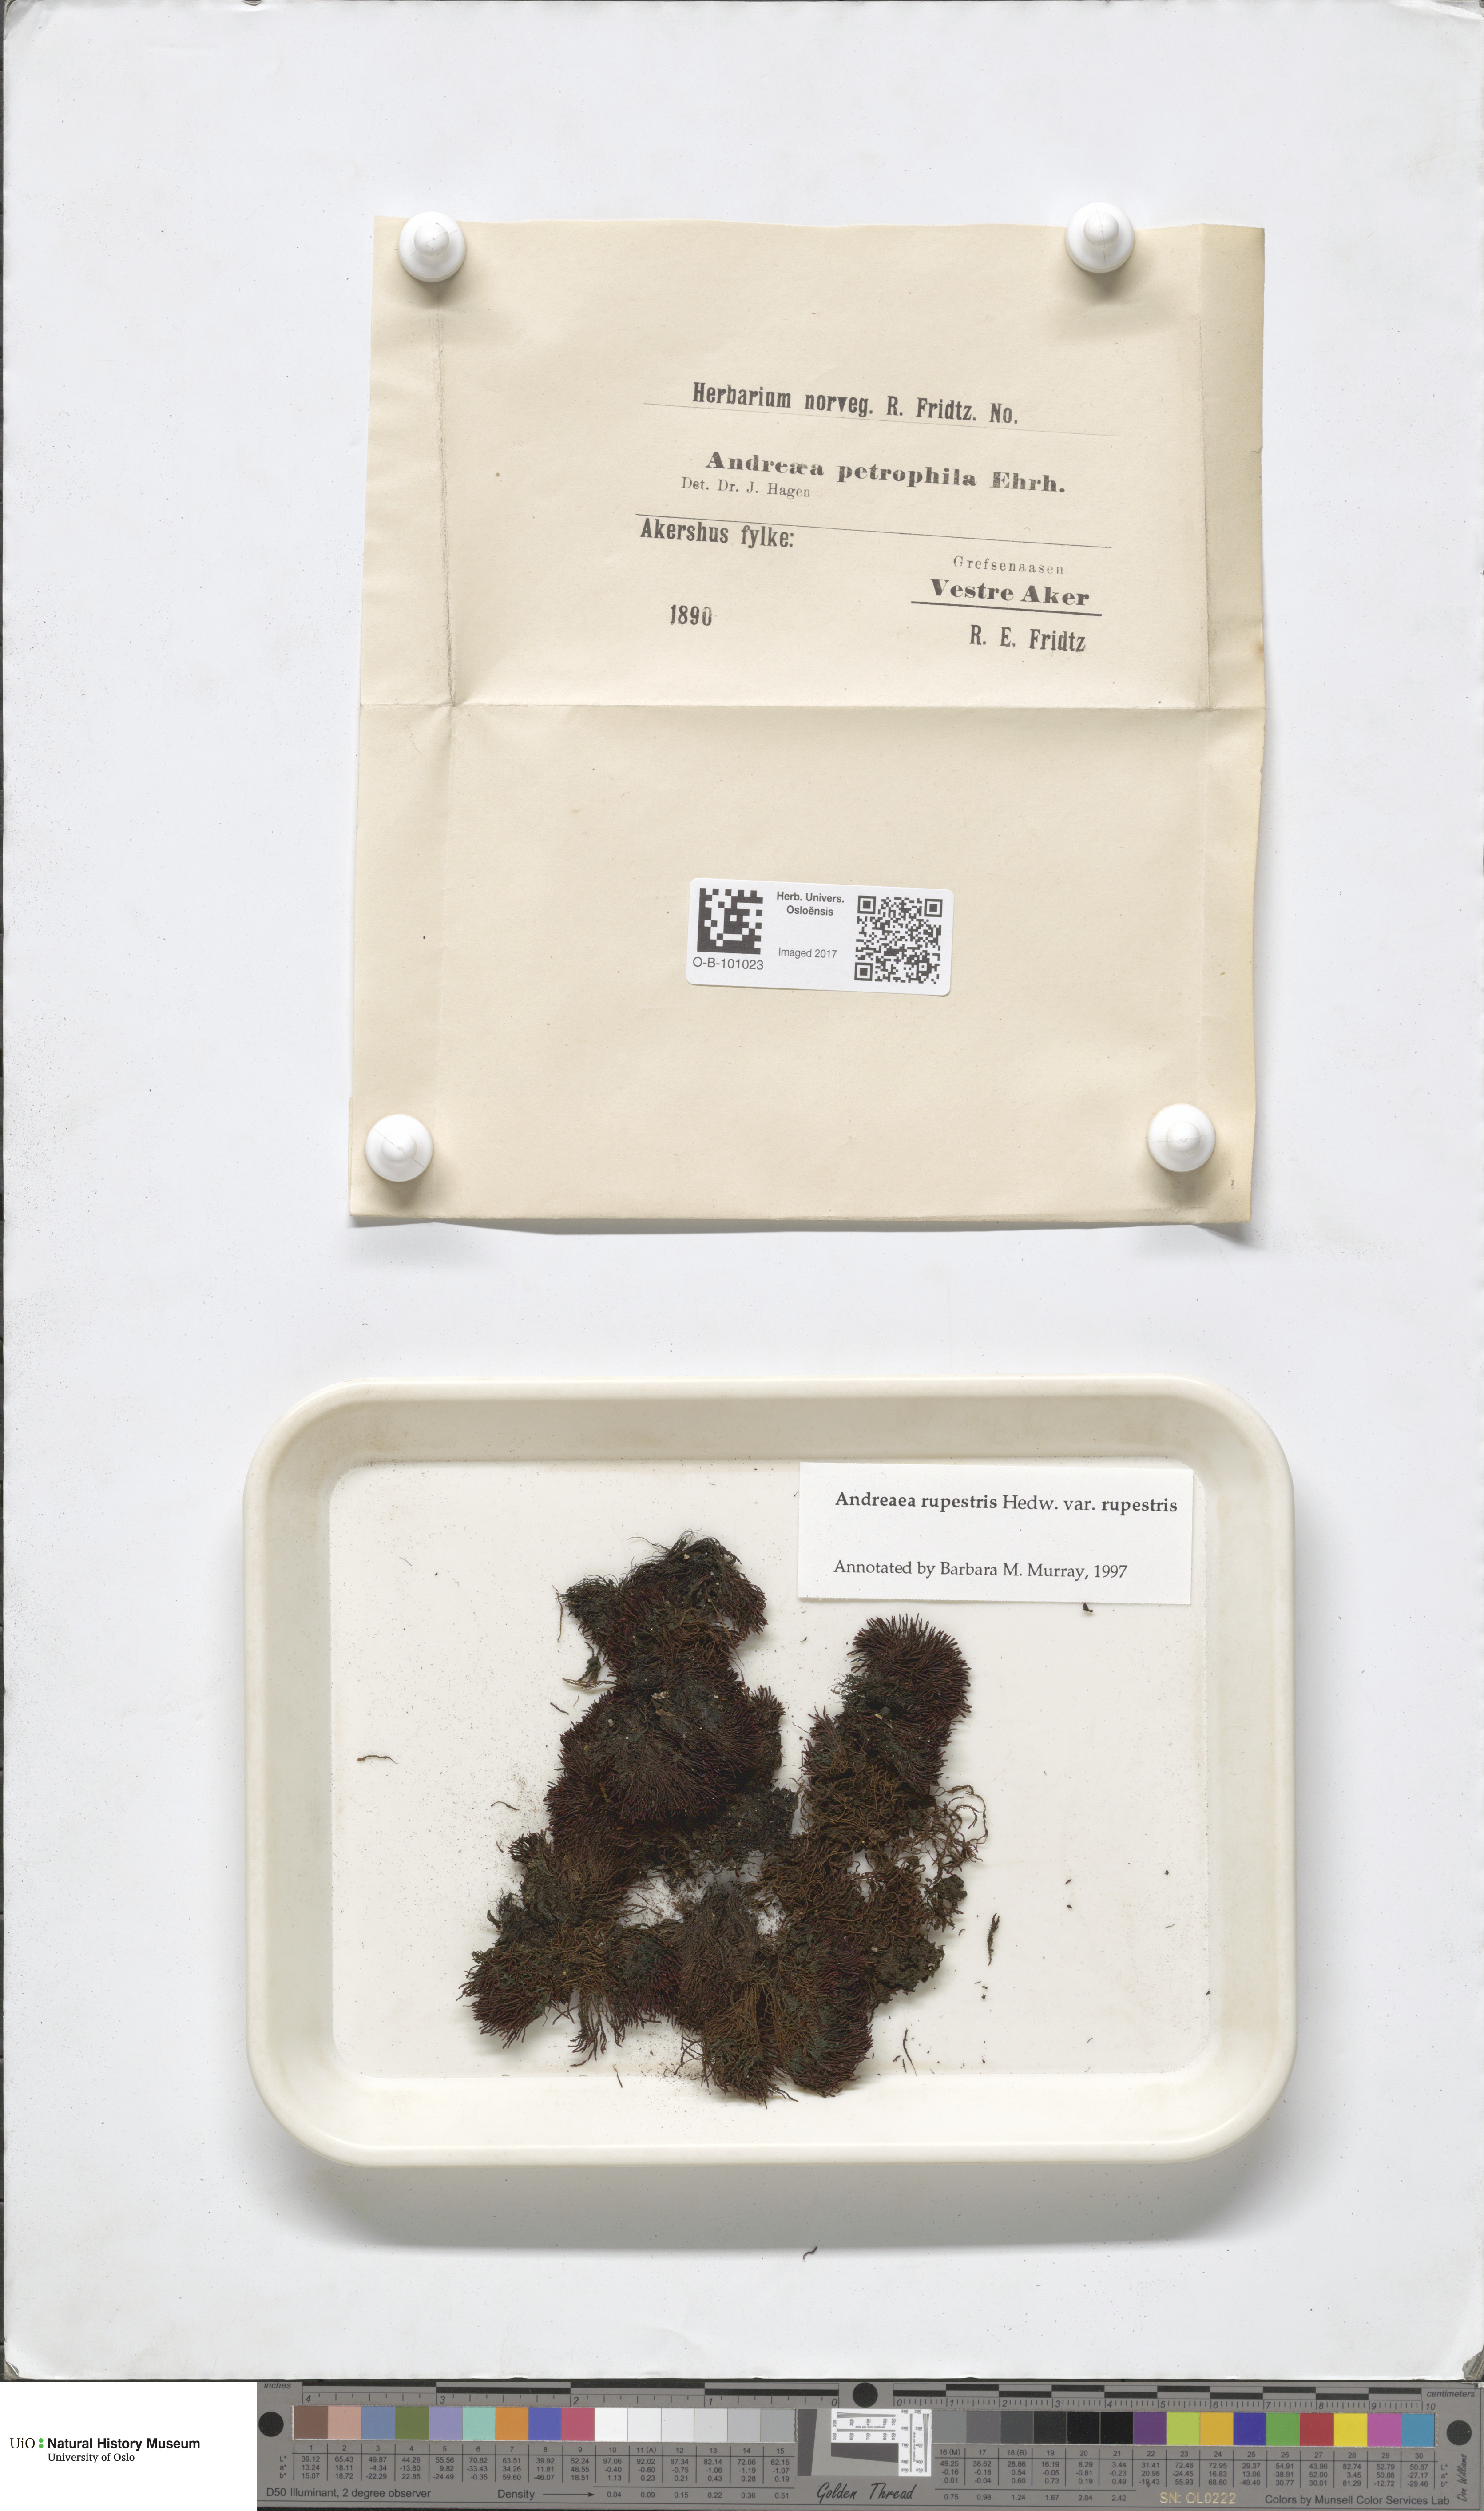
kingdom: Plantae
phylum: Bryophyta
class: Andreaeopsida
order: Andreaeales
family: Andreaeaceae
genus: Andreaea
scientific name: Andreaea rupestris
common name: Black rock moss
